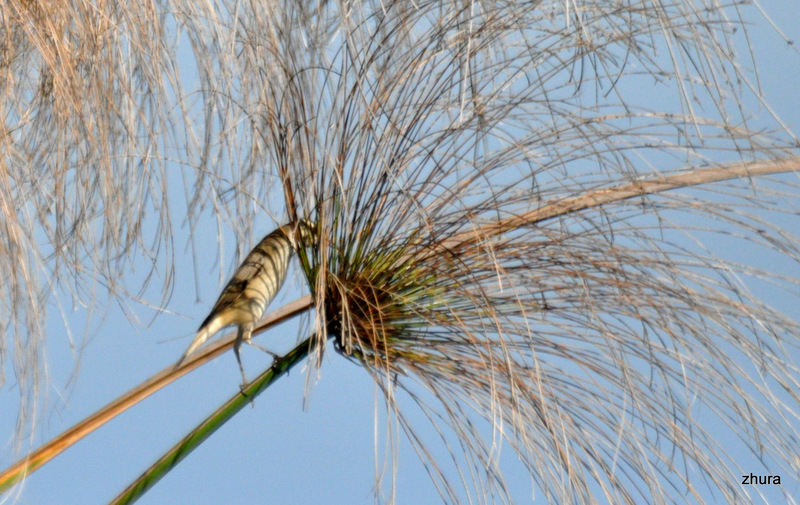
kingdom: Animalia
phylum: Chordata
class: Aves
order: Passeriformes
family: Acrocephalidae
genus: Acrocephalus
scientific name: Acrocephalus melanopogon
